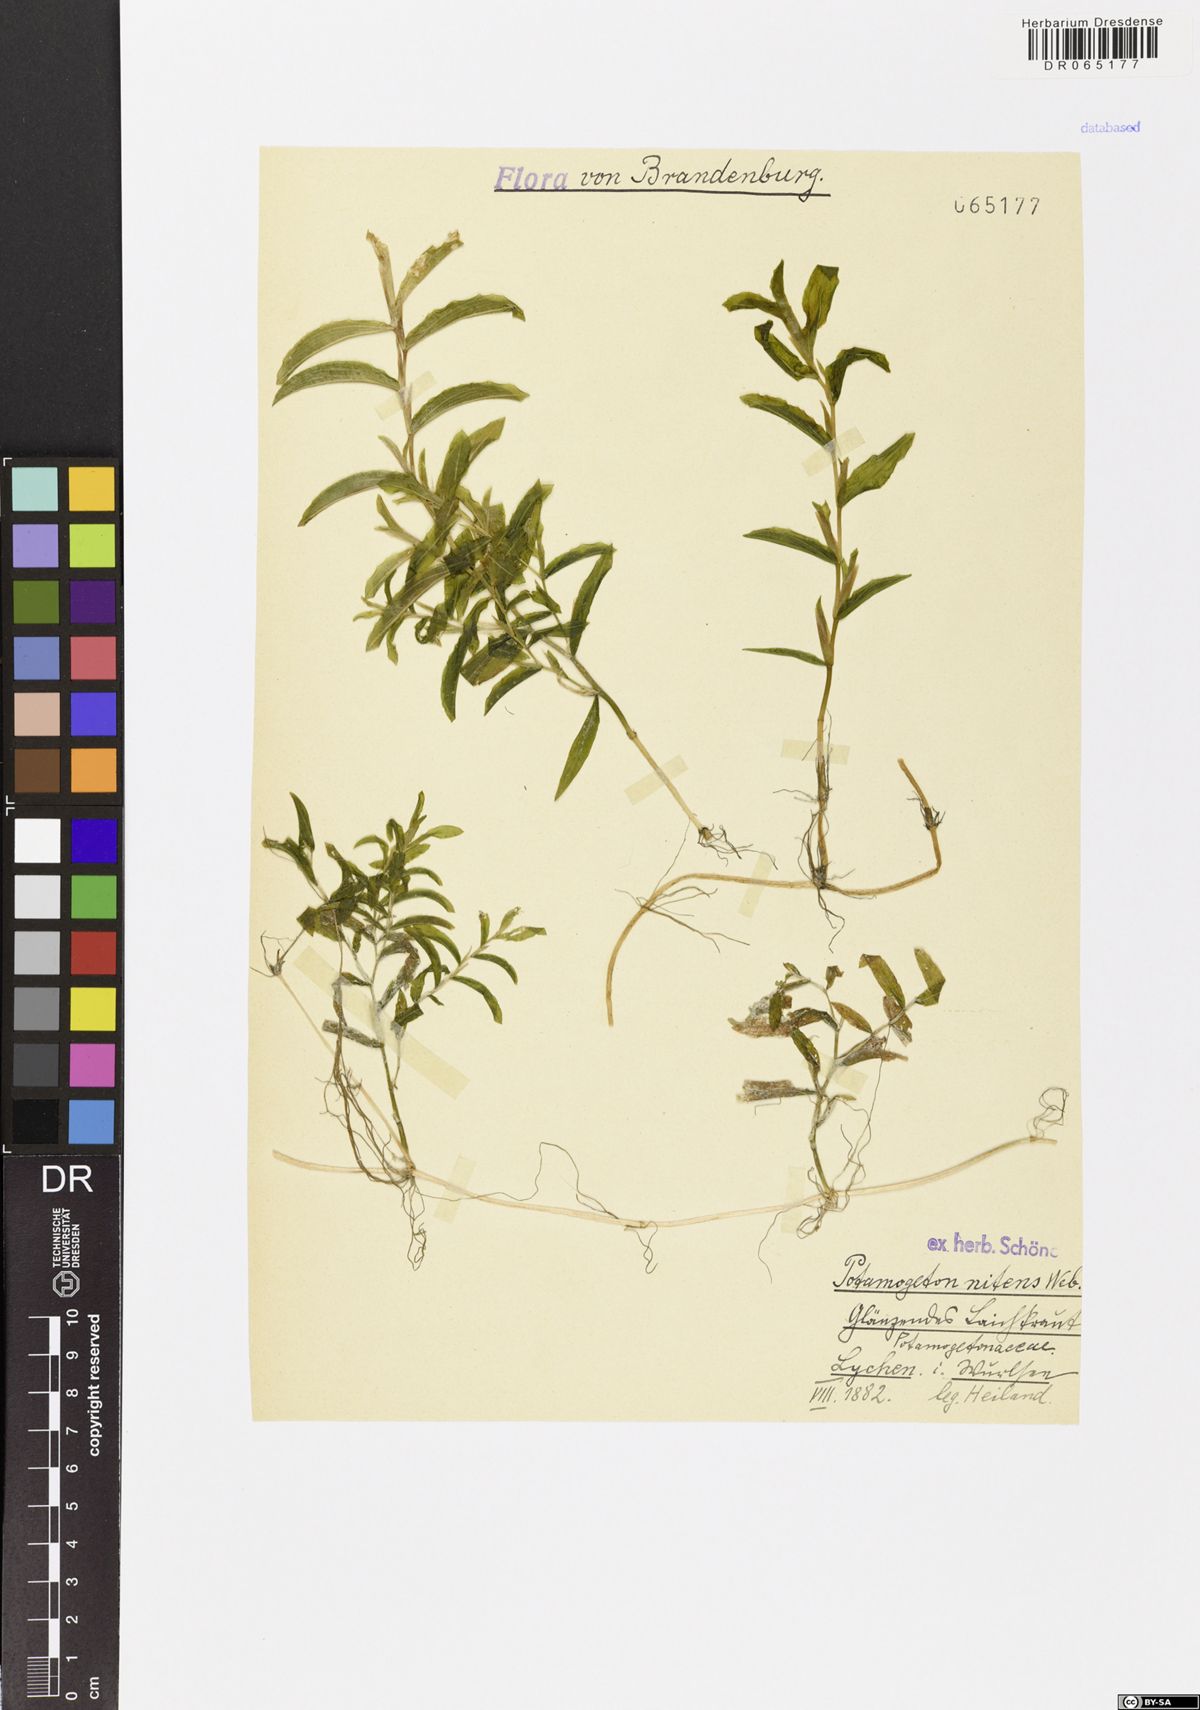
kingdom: Plantae
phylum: Tracheophyta
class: Liliopsida
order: Alismatales
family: Potamogetonaceae
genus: Potamogeton
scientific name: Potamogeton nitens
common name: Pondweed
